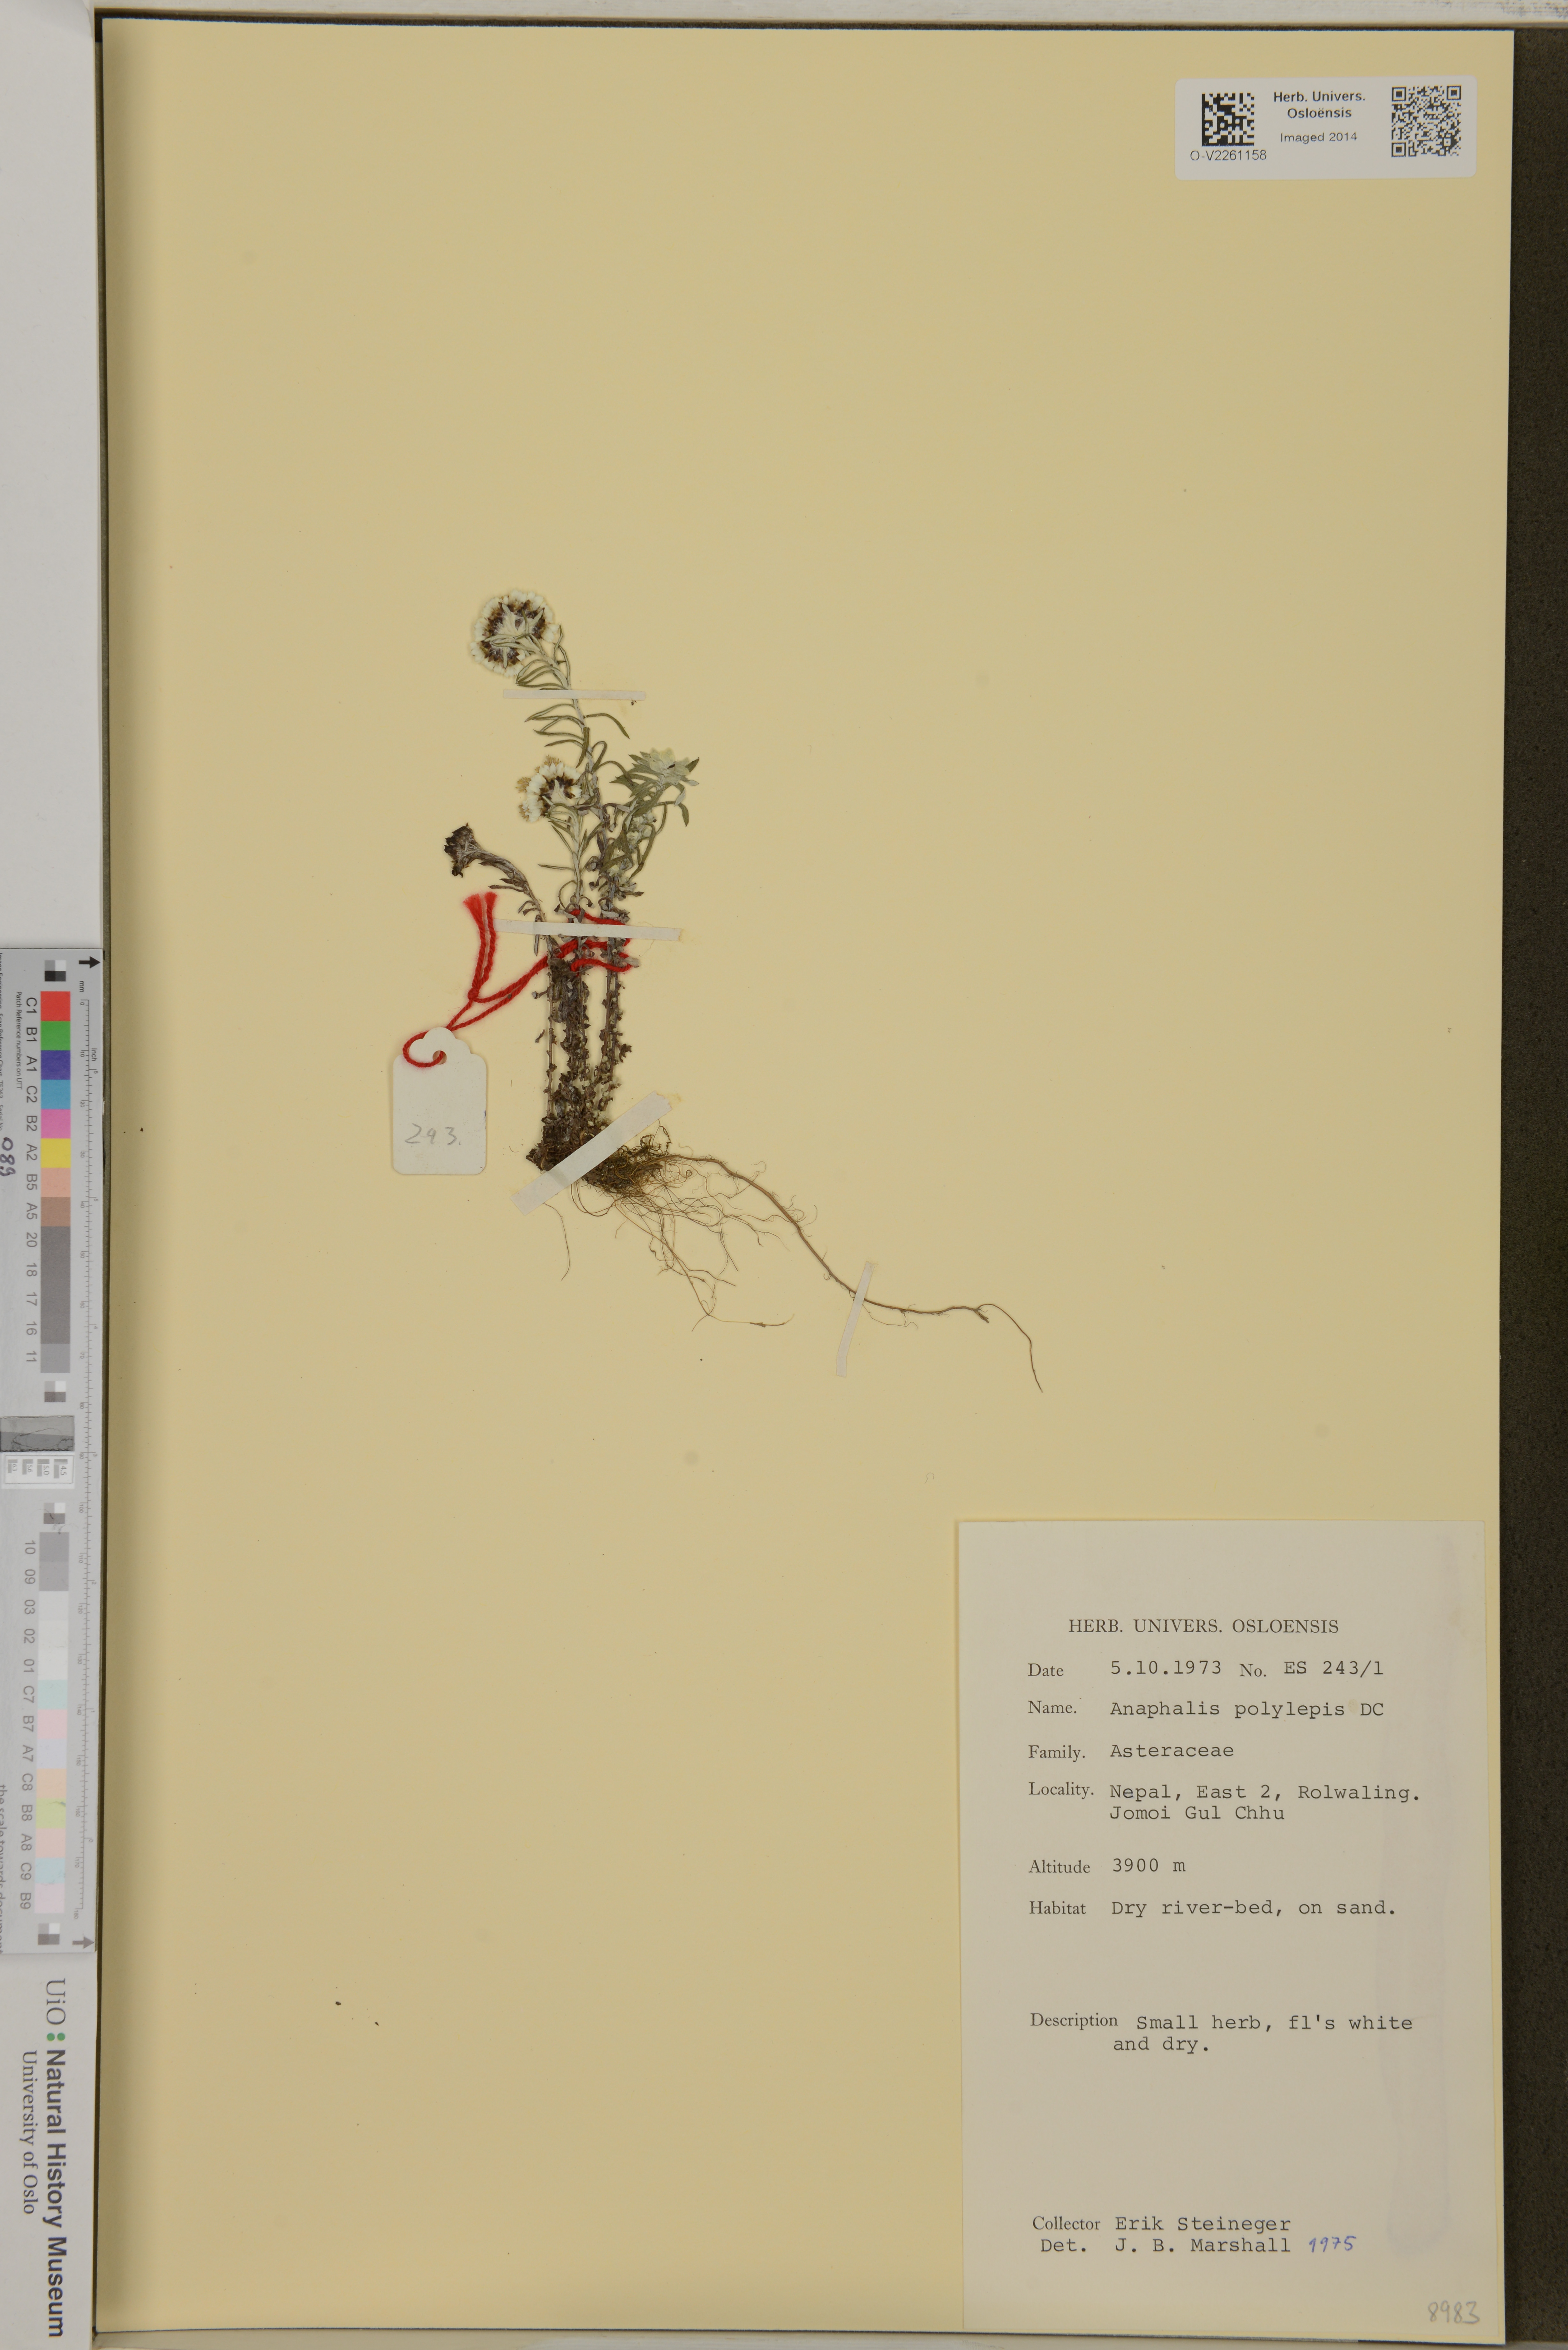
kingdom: Plantae
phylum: Tracheophyta
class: Magnoliopsida
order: Asterales
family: Asteraceae
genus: Anaphalis
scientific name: Anaphalis royleana
